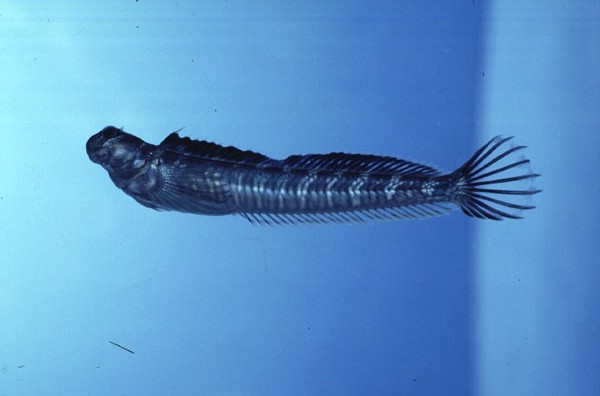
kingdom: Animalia
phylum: Chordata
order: Perciformes
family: Blenniidae
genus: Alticus
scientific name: Alticus monochrus
